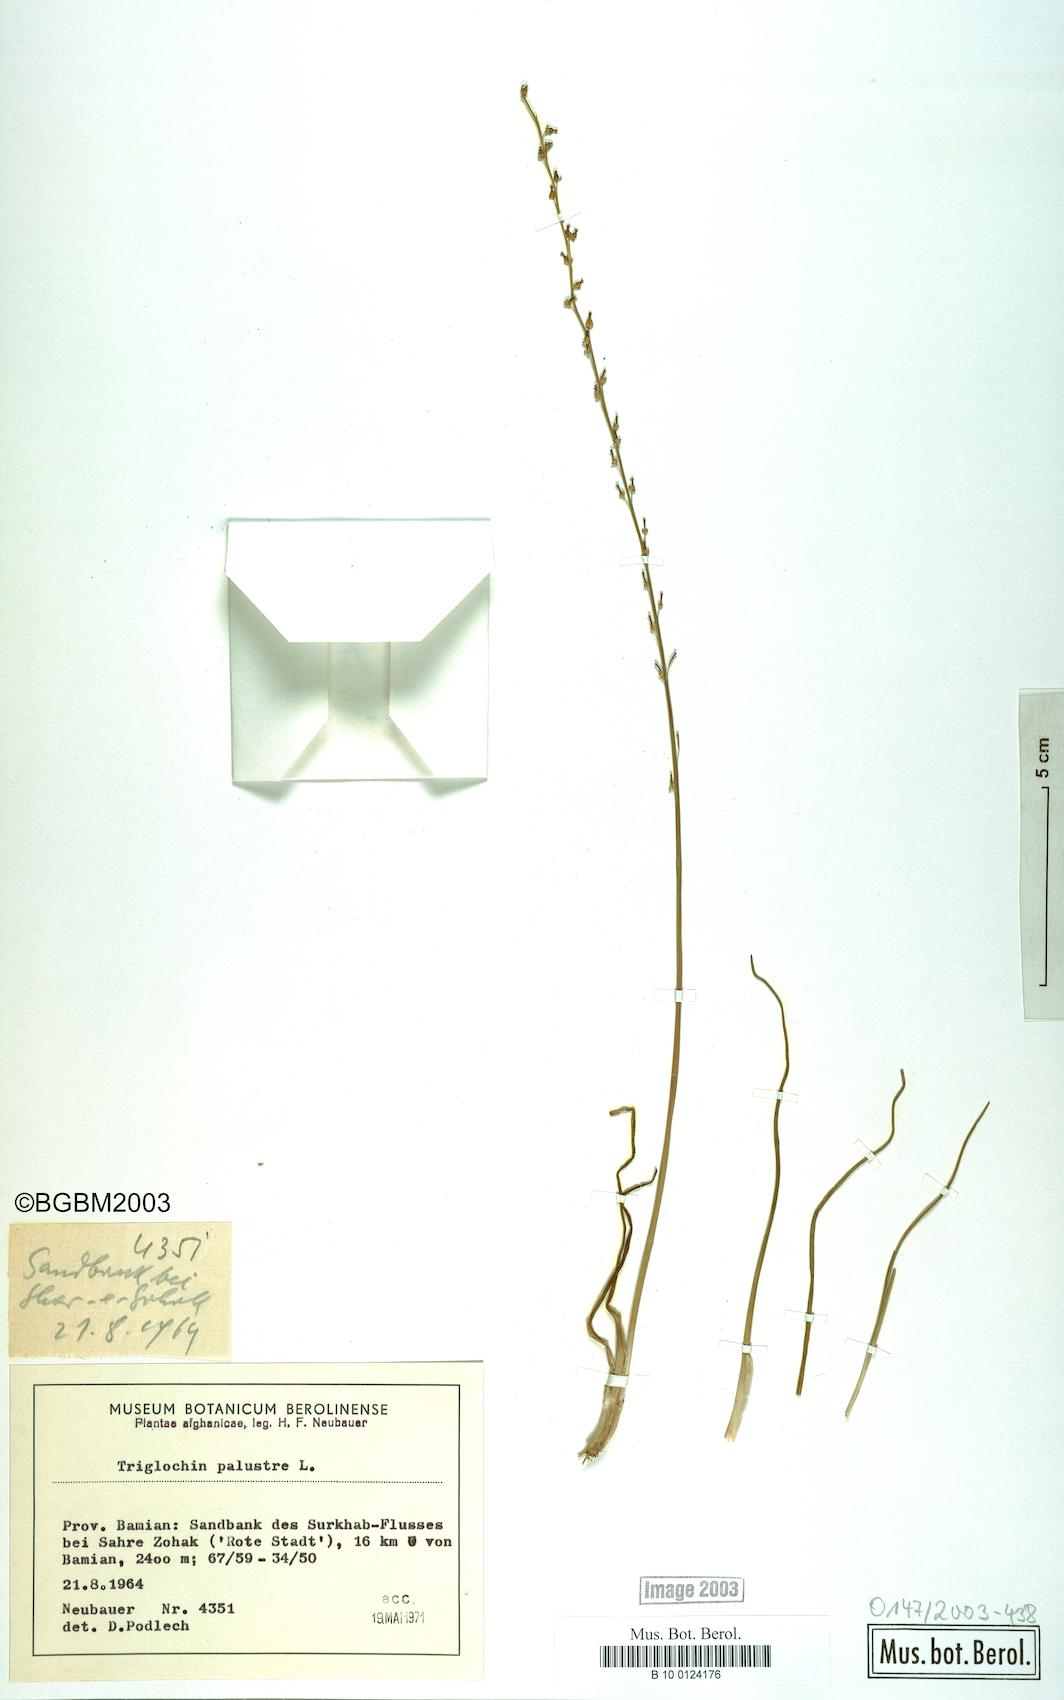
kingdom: Plantae
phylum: Tracheophyta
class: Liliopsida
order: Alismatales
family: Juncaginaceae
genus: Triglochin
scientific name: Triglochin palustris
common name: Marsh arrowgrass
